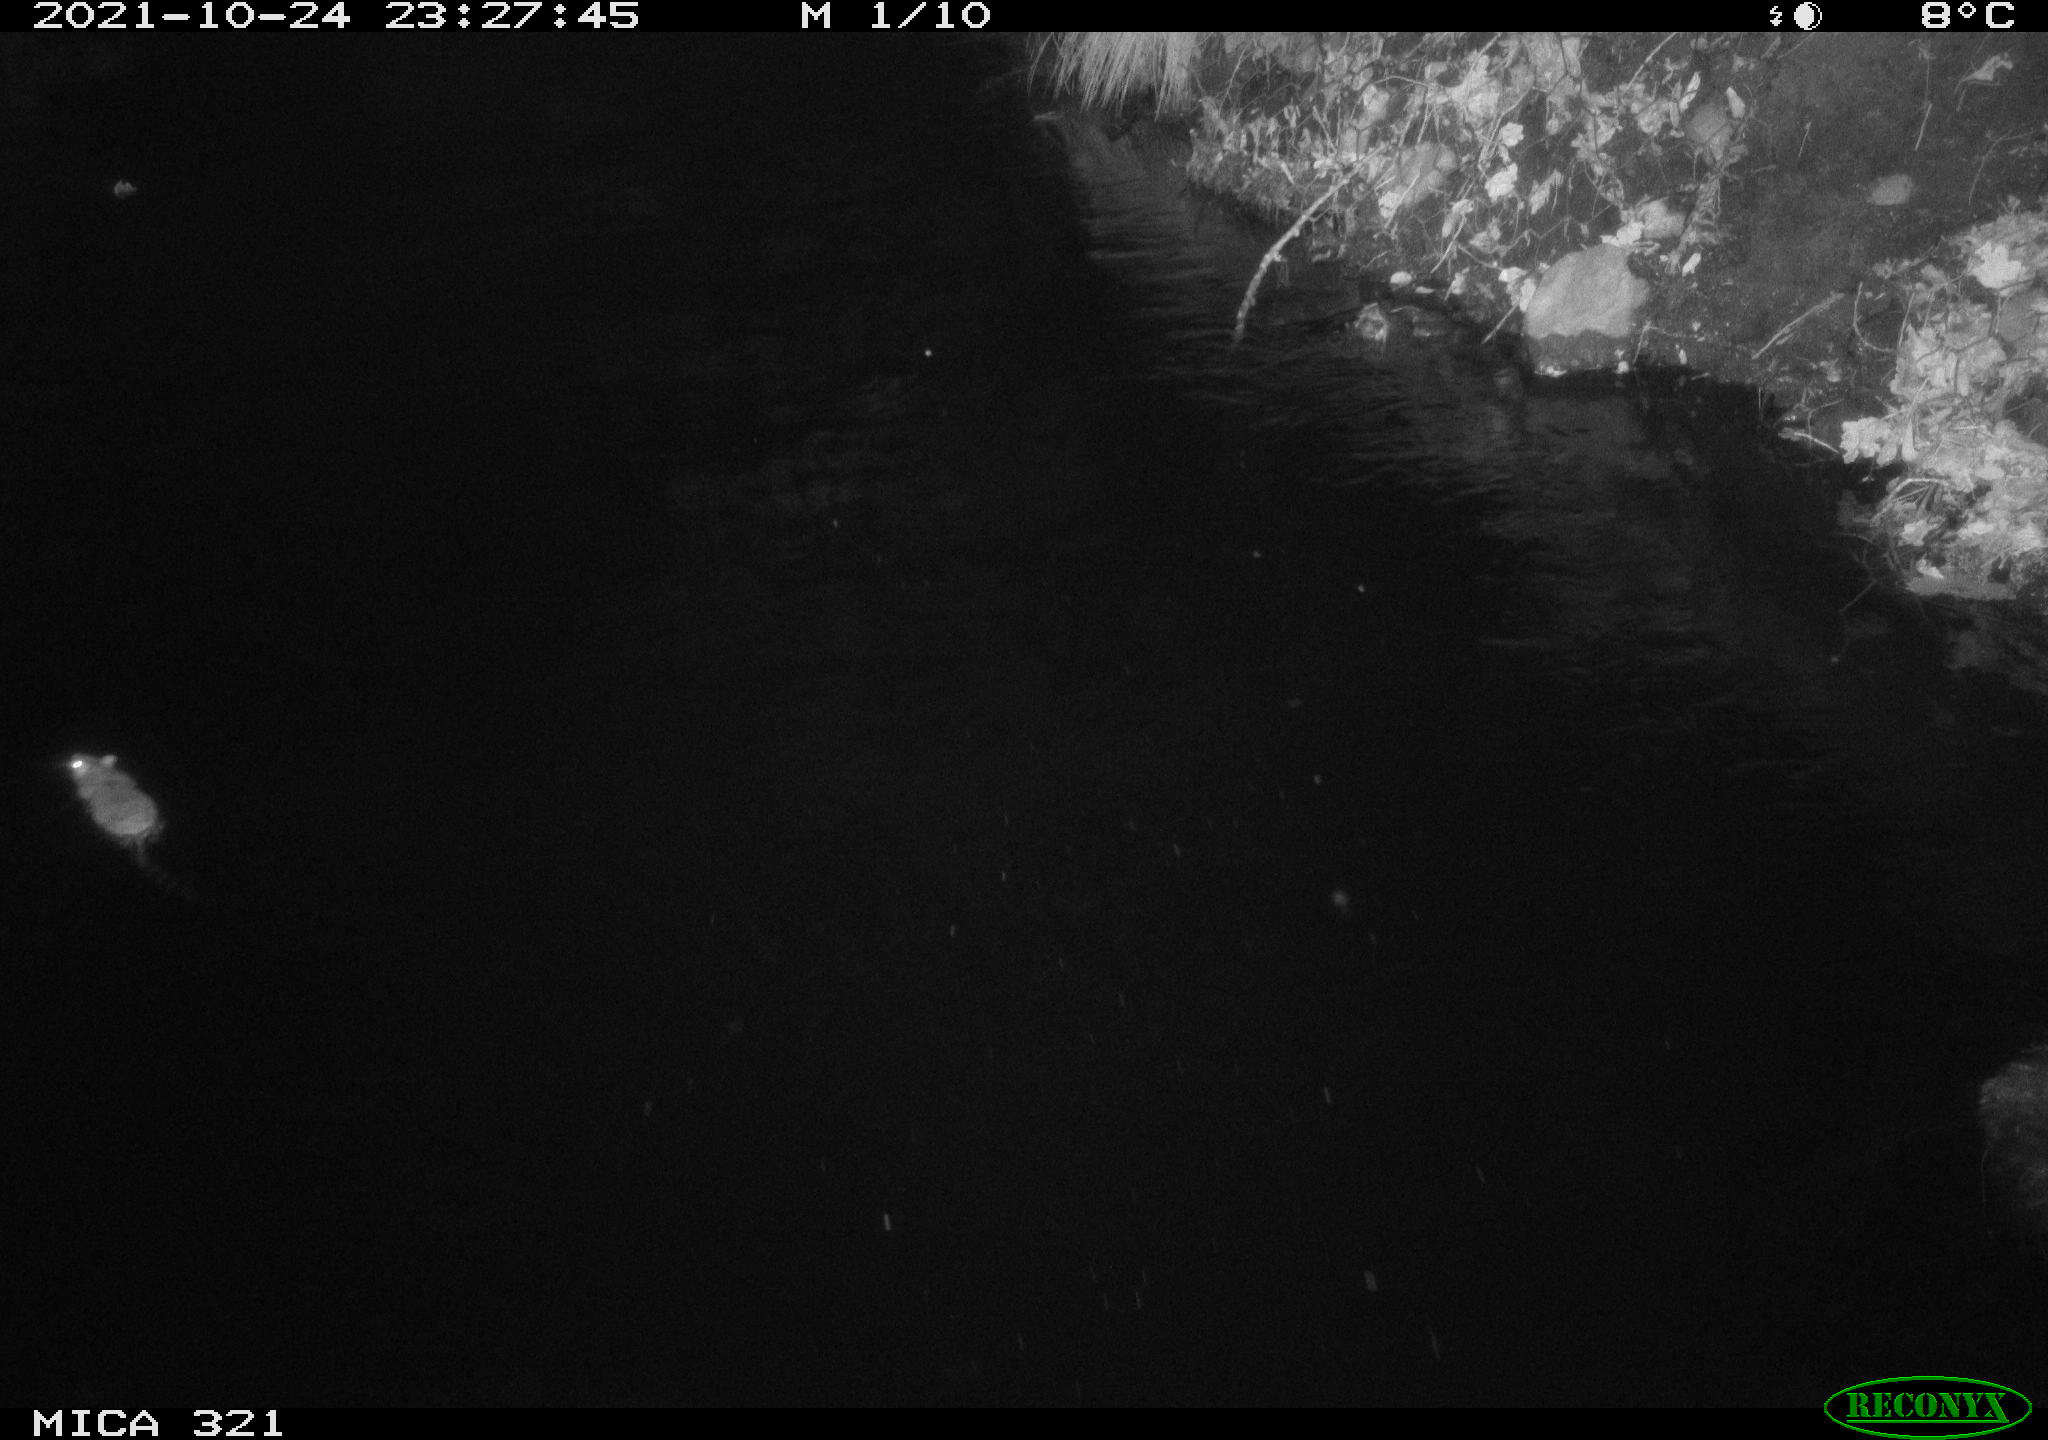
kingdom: Animalia
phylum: Chordata
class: Mammalia
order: Rodentia
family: Muridae
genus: Rattus
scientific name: Rattus norvegicus
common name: Brown rat
